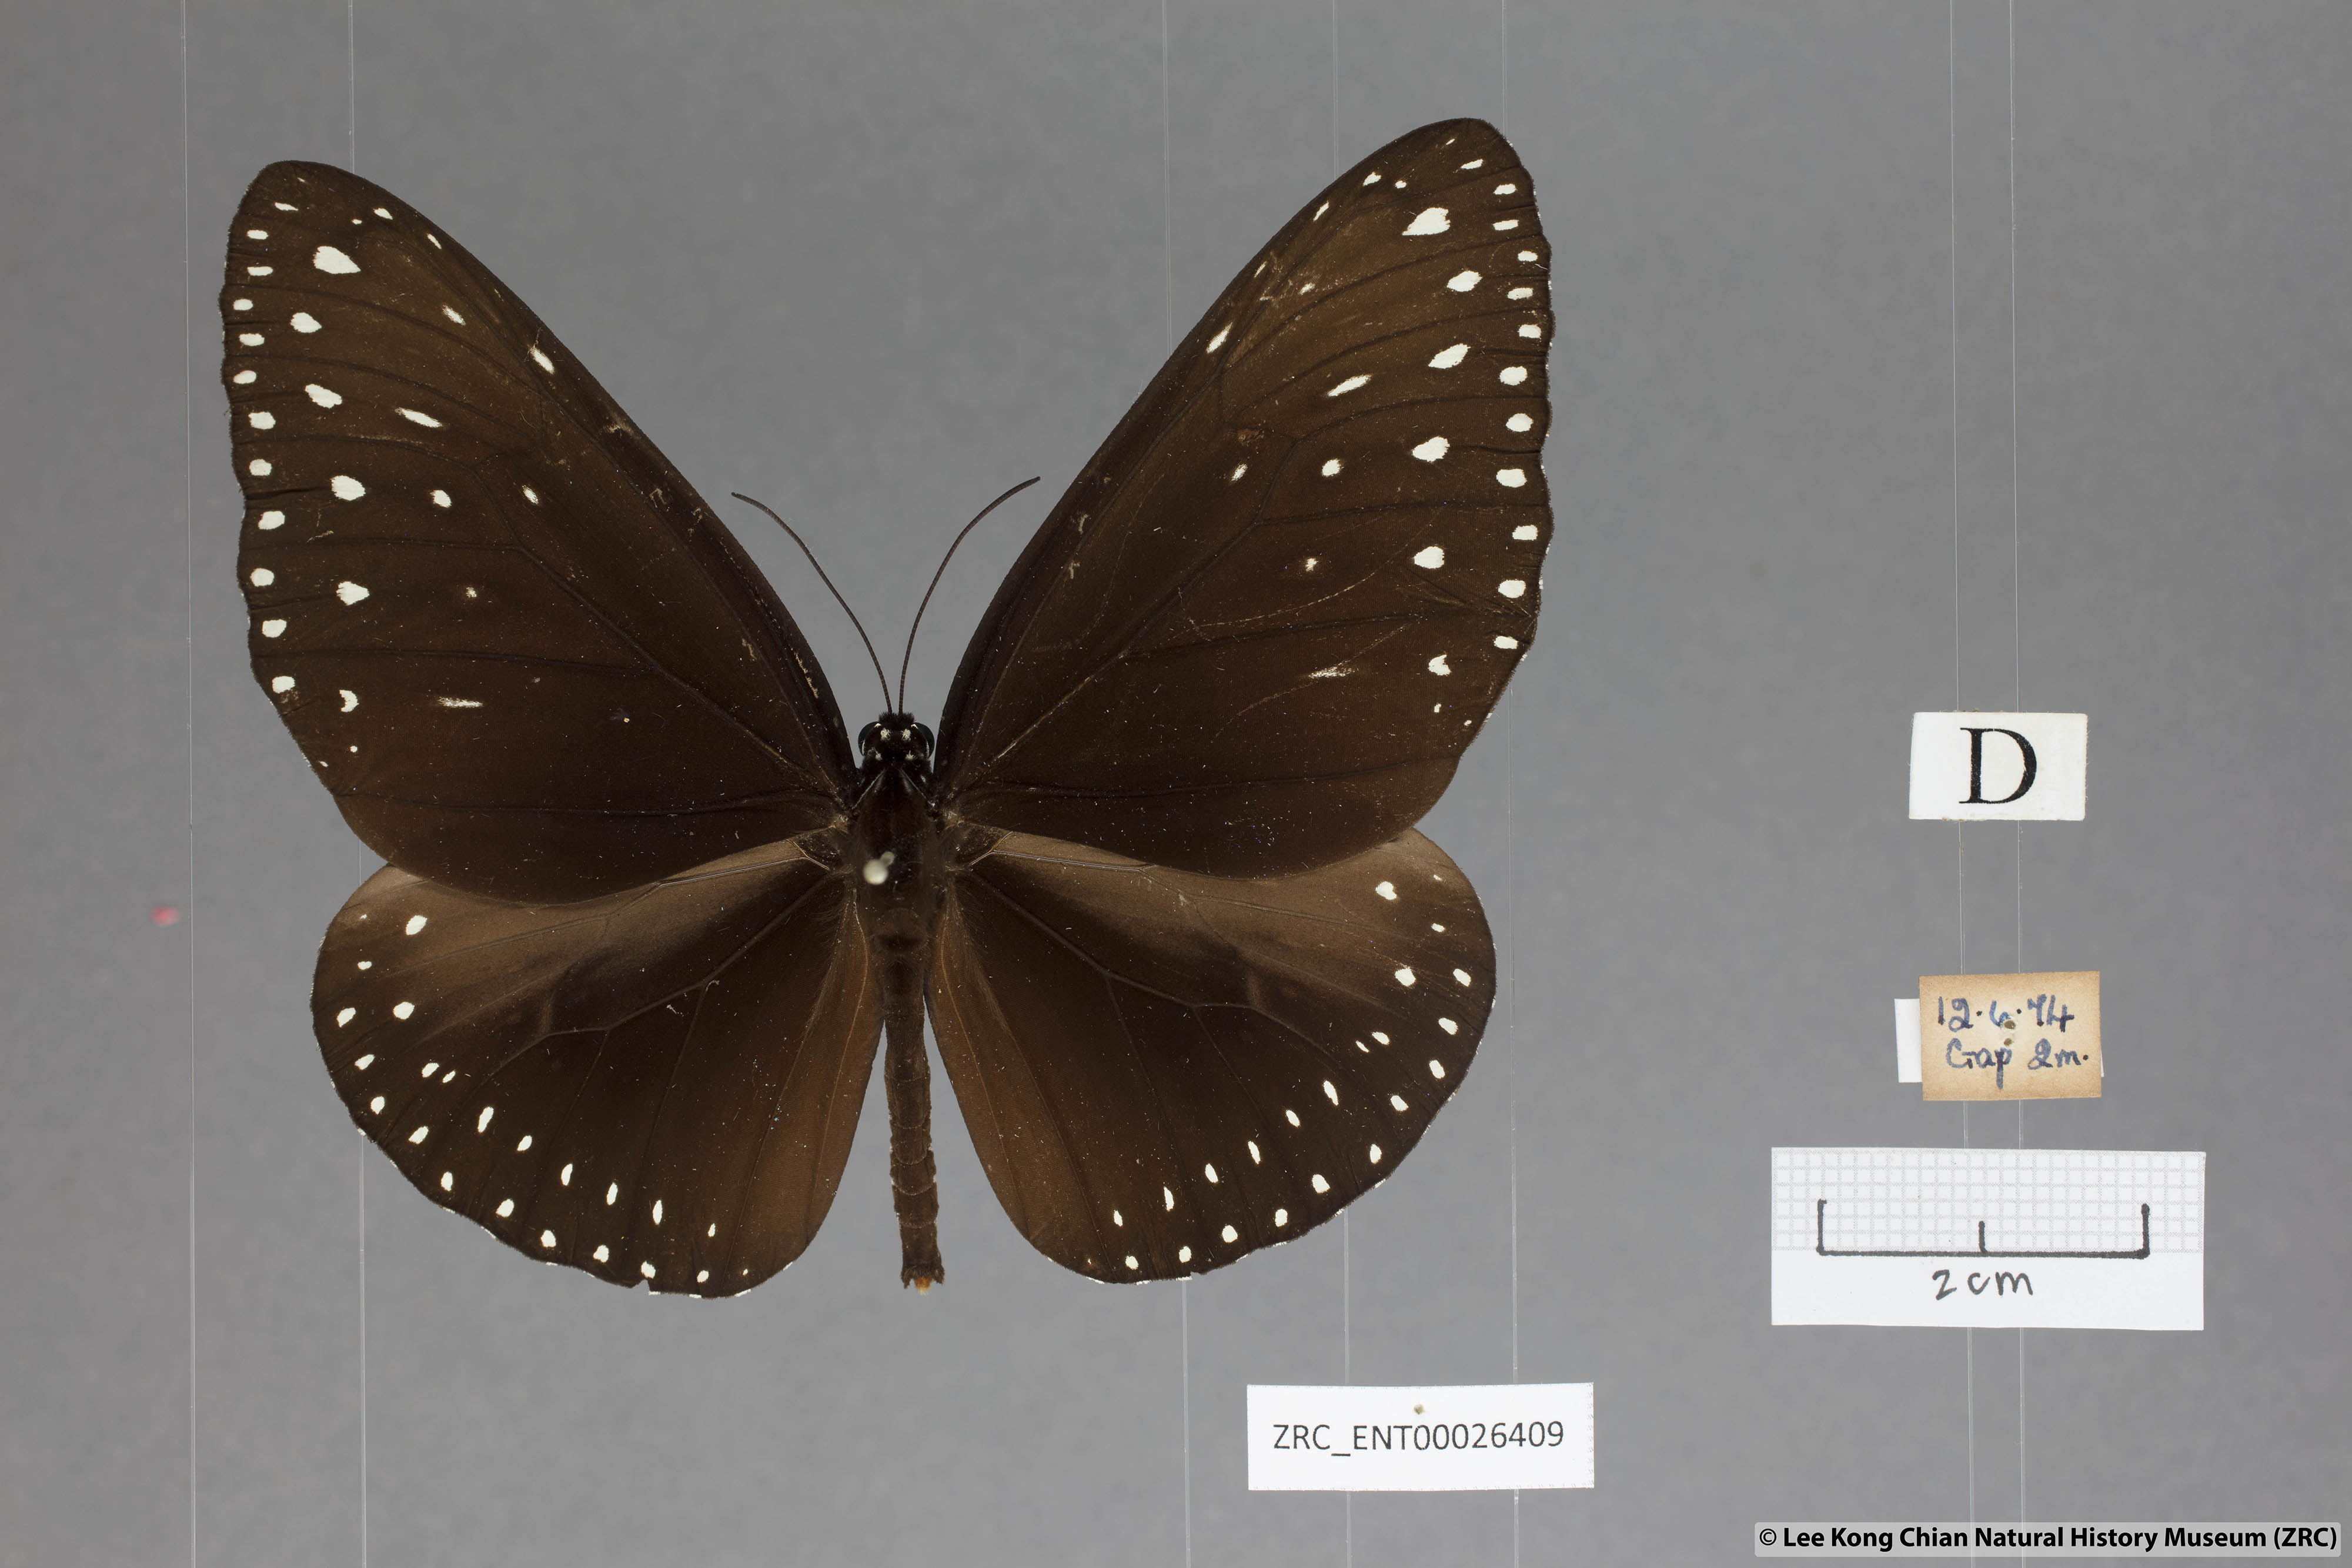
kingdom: Animalia
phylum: Arthropoda
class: Insecta
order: Lepidoptera
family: Nymphalidae
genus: Euploea
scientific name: Euploea camaralzeman
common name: Malayan crow butterfly
